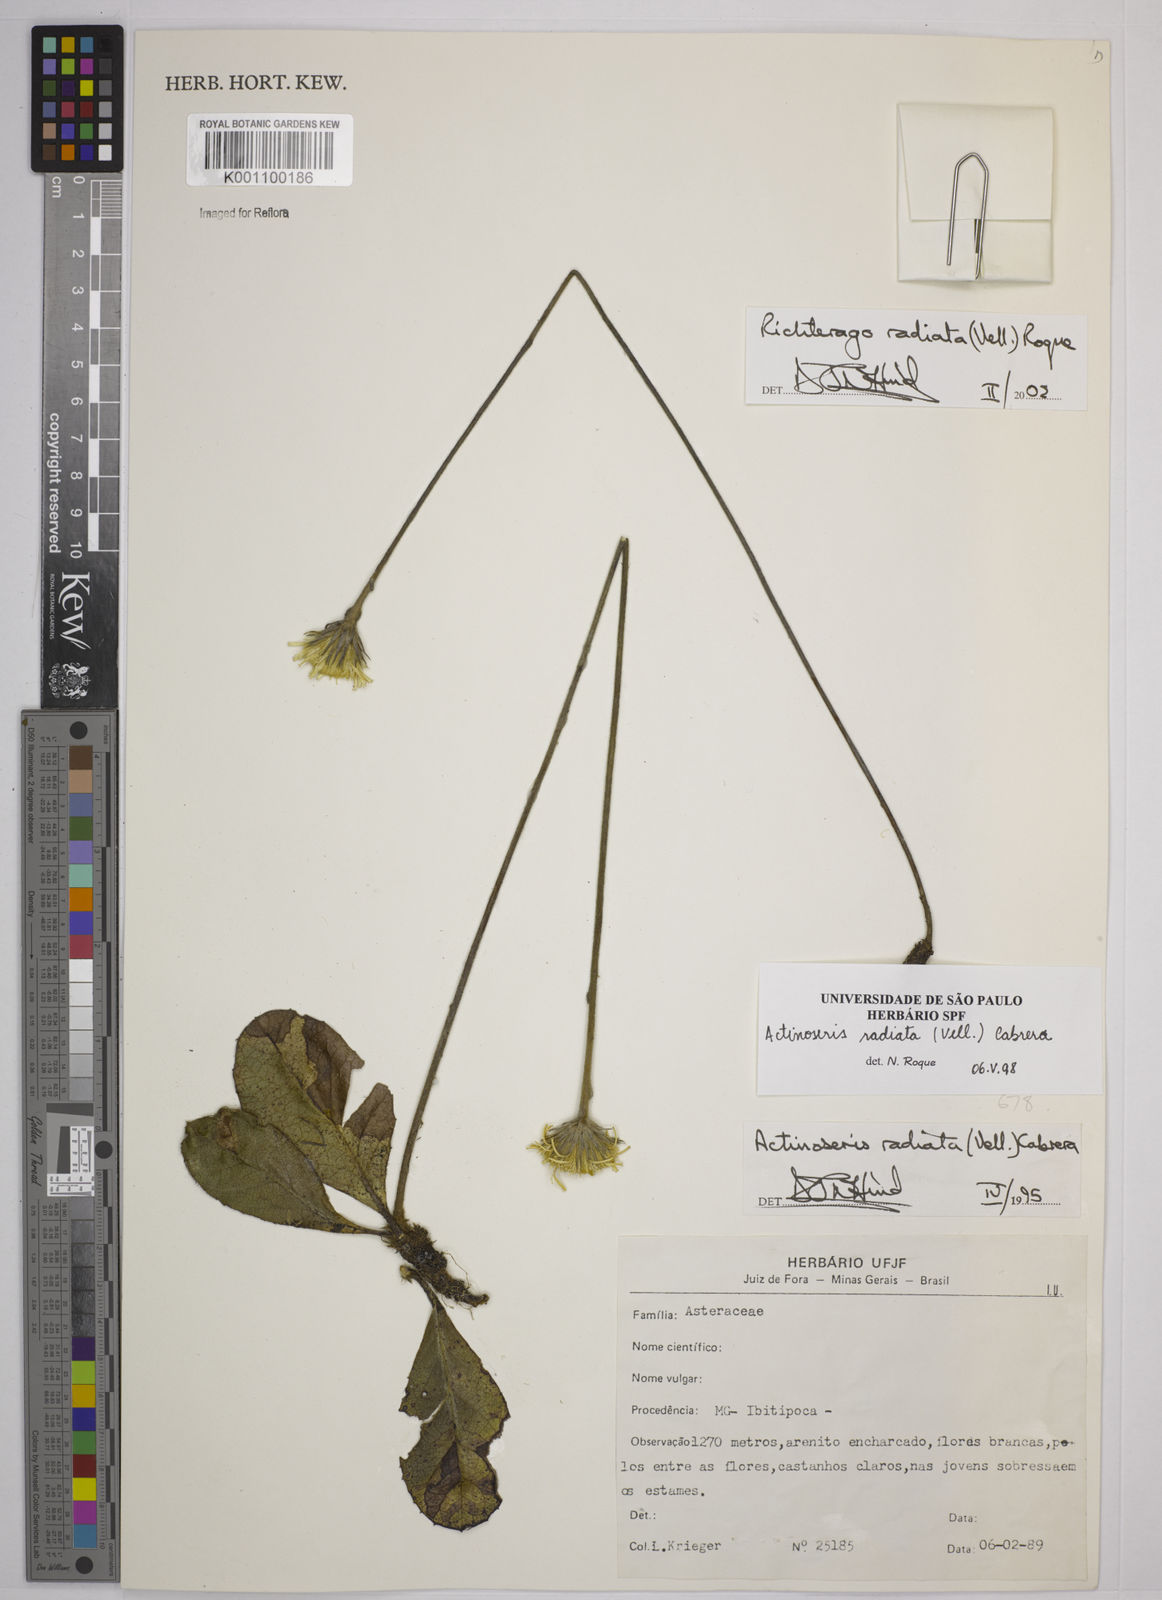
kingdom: Plantae
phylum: Tracheophyta
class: Magnoliopsida
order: Asterales
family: Asteraceae
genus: Richterago
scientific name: Richterago radiata
